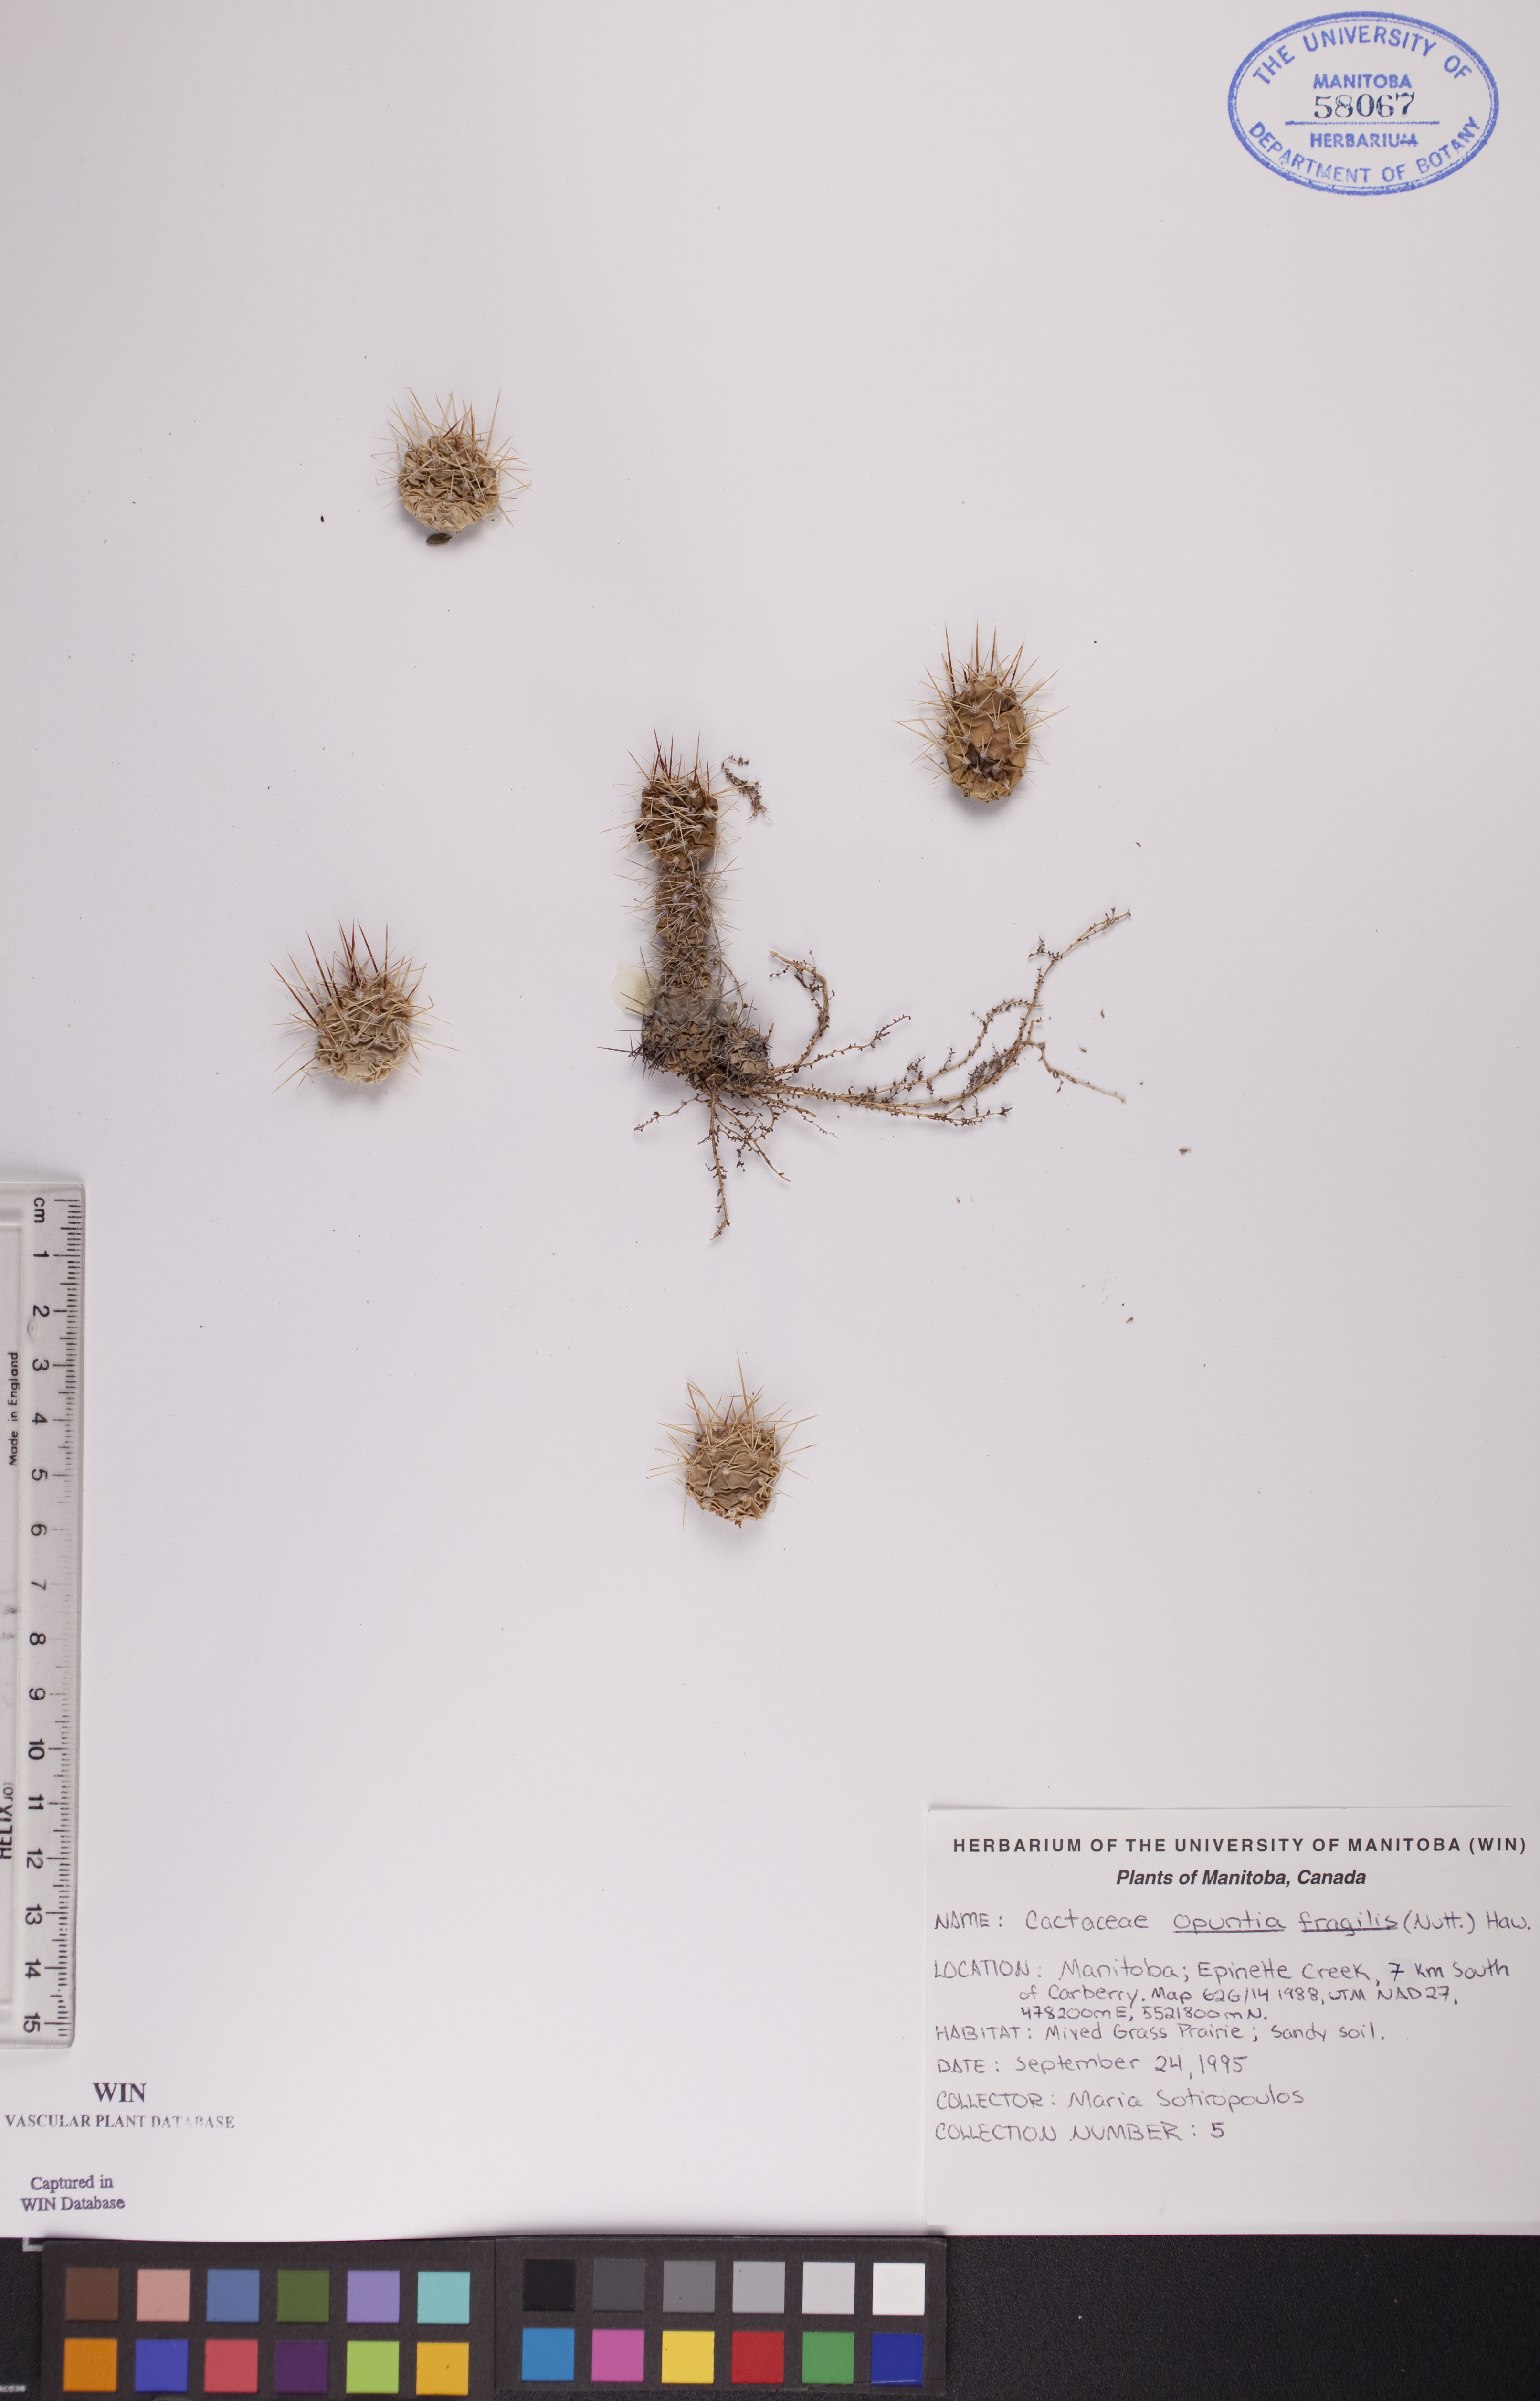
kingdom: Plantae
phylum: Tracheophyta
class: Magnoliopsida
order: Caryophyllales
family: Cactaceae
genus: Opuntia
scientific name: Opuntia fragilis
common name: Brittle cactus
